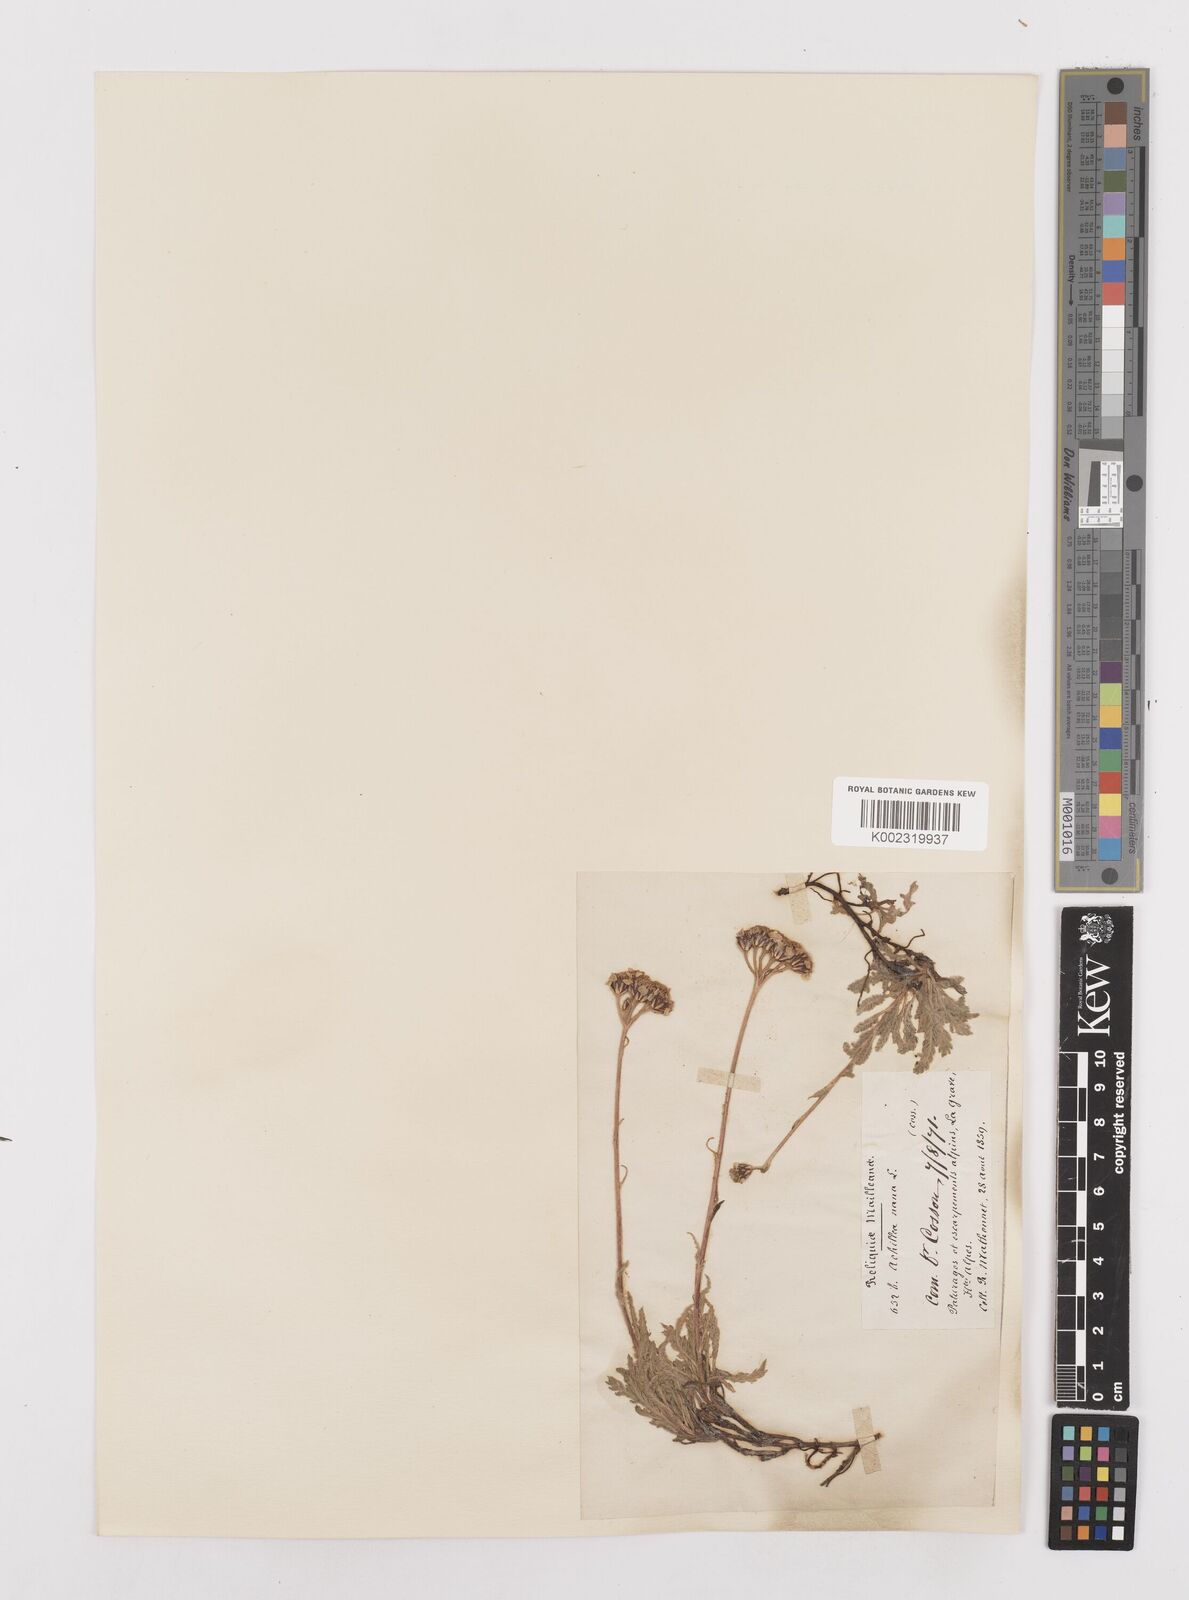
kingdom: Plantae
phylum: Tracheophyta
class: Magnoliopsida
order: Asterales
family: Asteraceae
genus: Achillea
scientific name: Achillea
